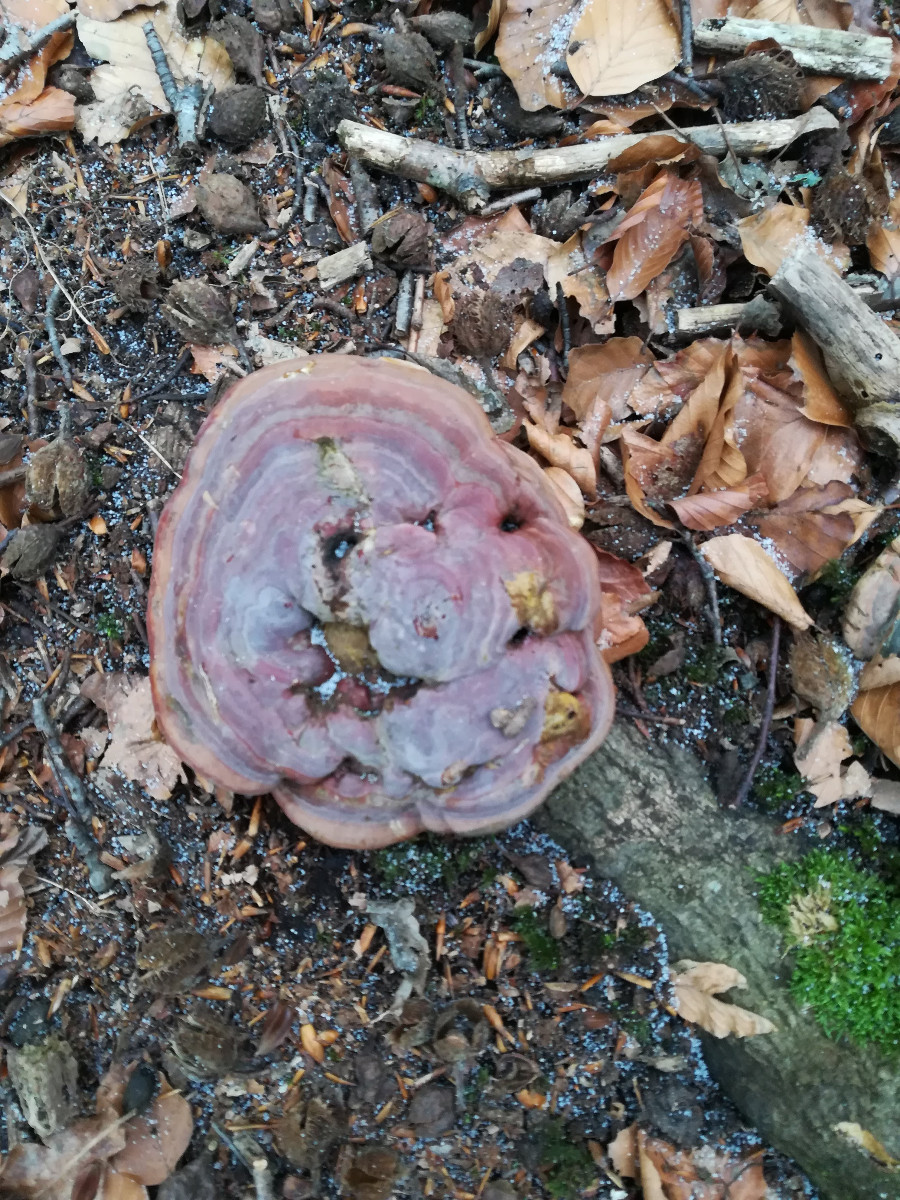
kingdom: Fungi
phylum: Basidiomycota
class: Agaricomycetes
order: Polyporales
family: Polyporaceae
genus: Ganoderma
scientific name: Ganoderma pfeifferi
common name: kobberrød lakporesvamp
